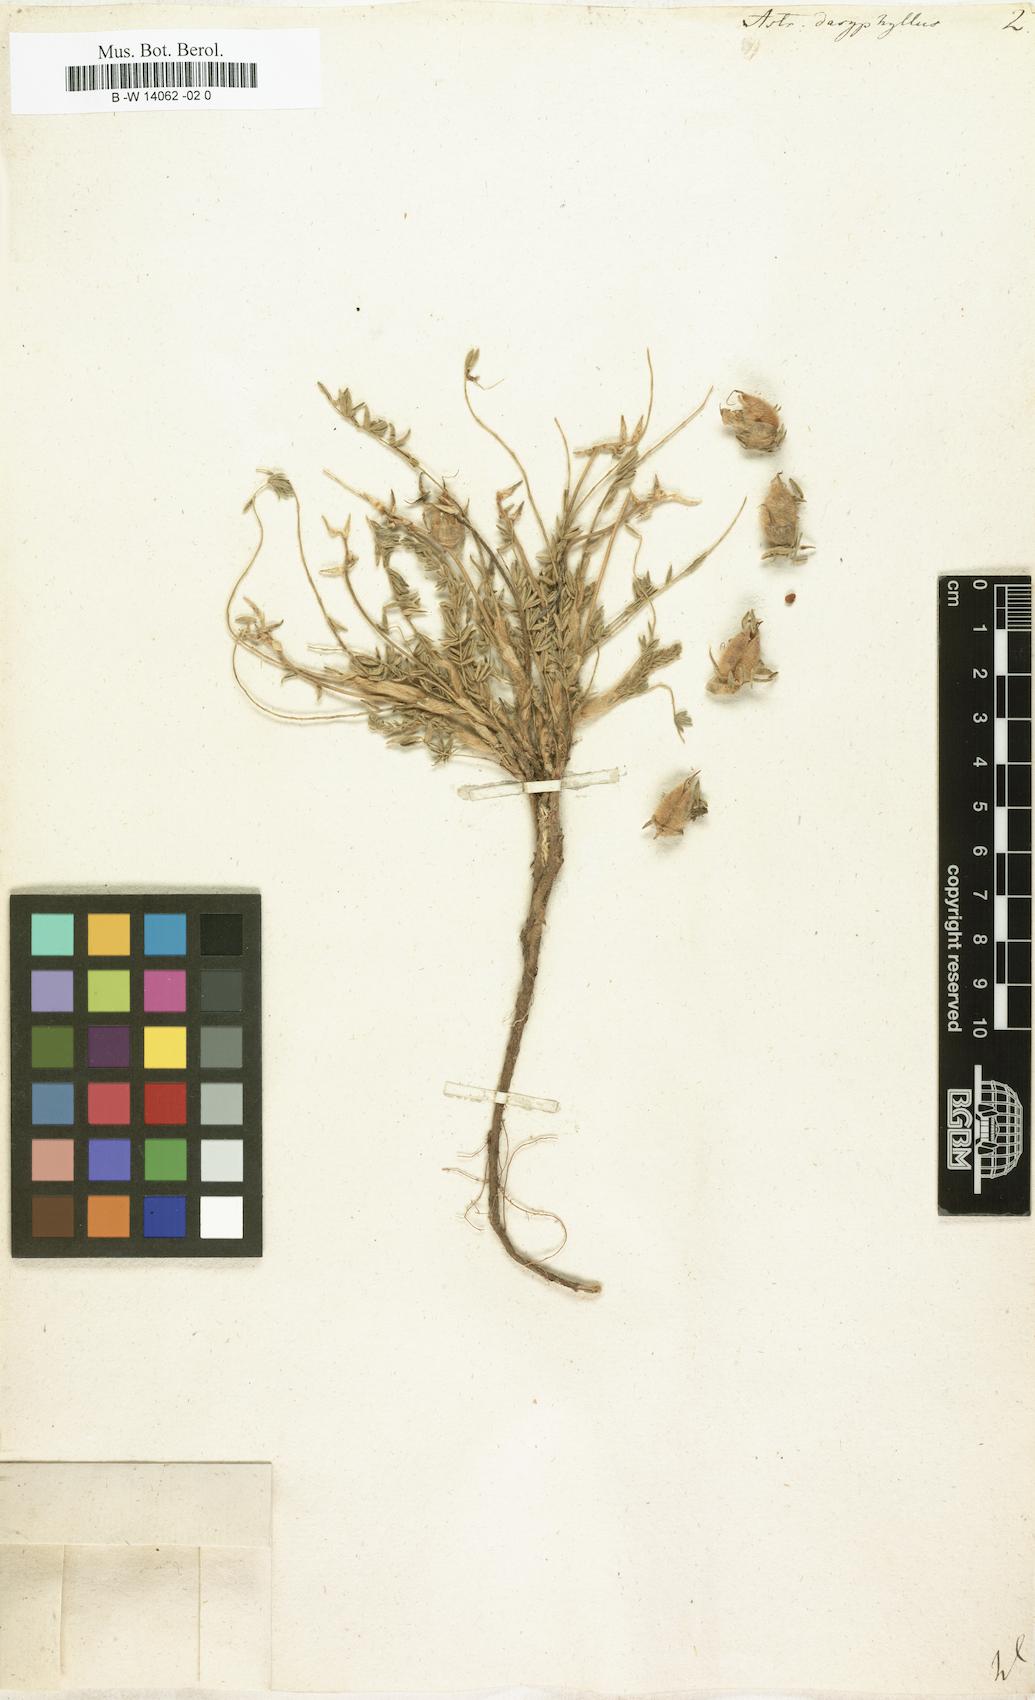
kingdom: Plantae
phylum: Tracheophyta
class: Magnoliopsida
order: Fabales
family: Fabaceae
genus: Oxytropis
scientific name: Oxytropis lanata
